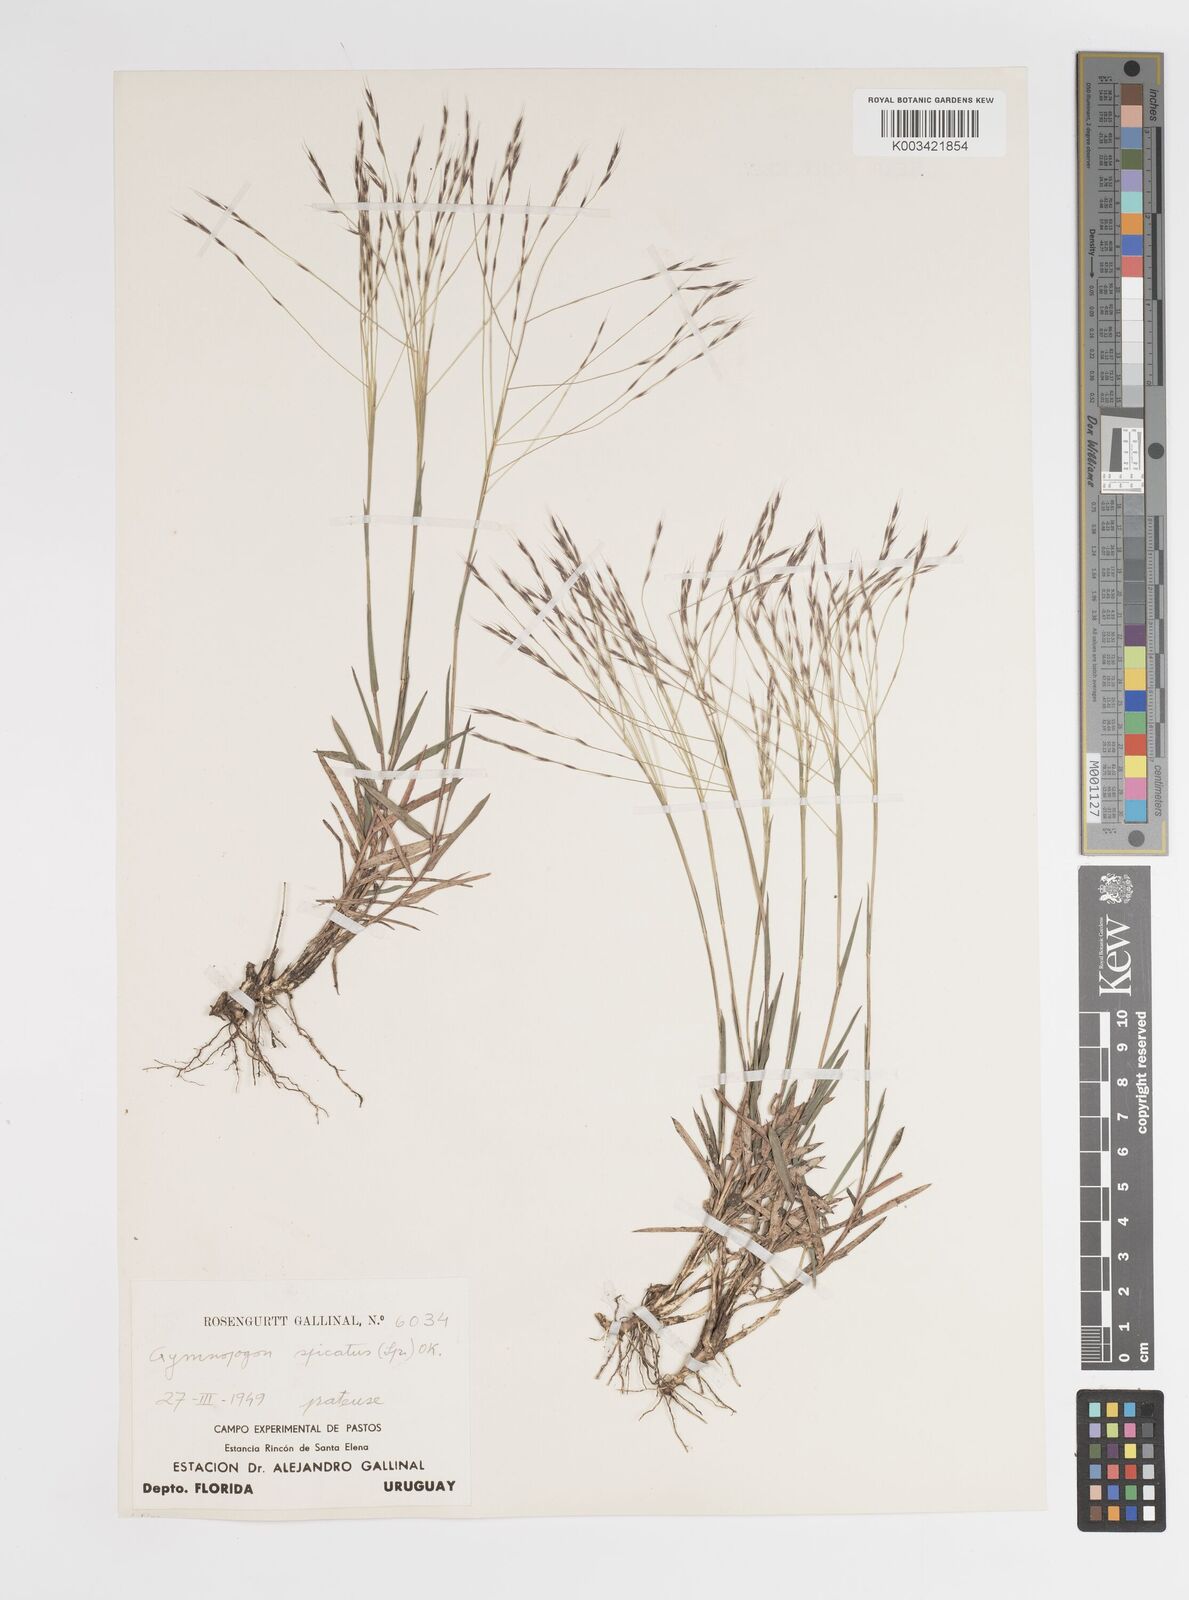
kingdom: Plantae
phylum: Tracheophyta
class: Liliopsida
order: Poales
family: Poaceae
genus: Gymnopogon
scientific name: Gymnopogon grandiflorus
